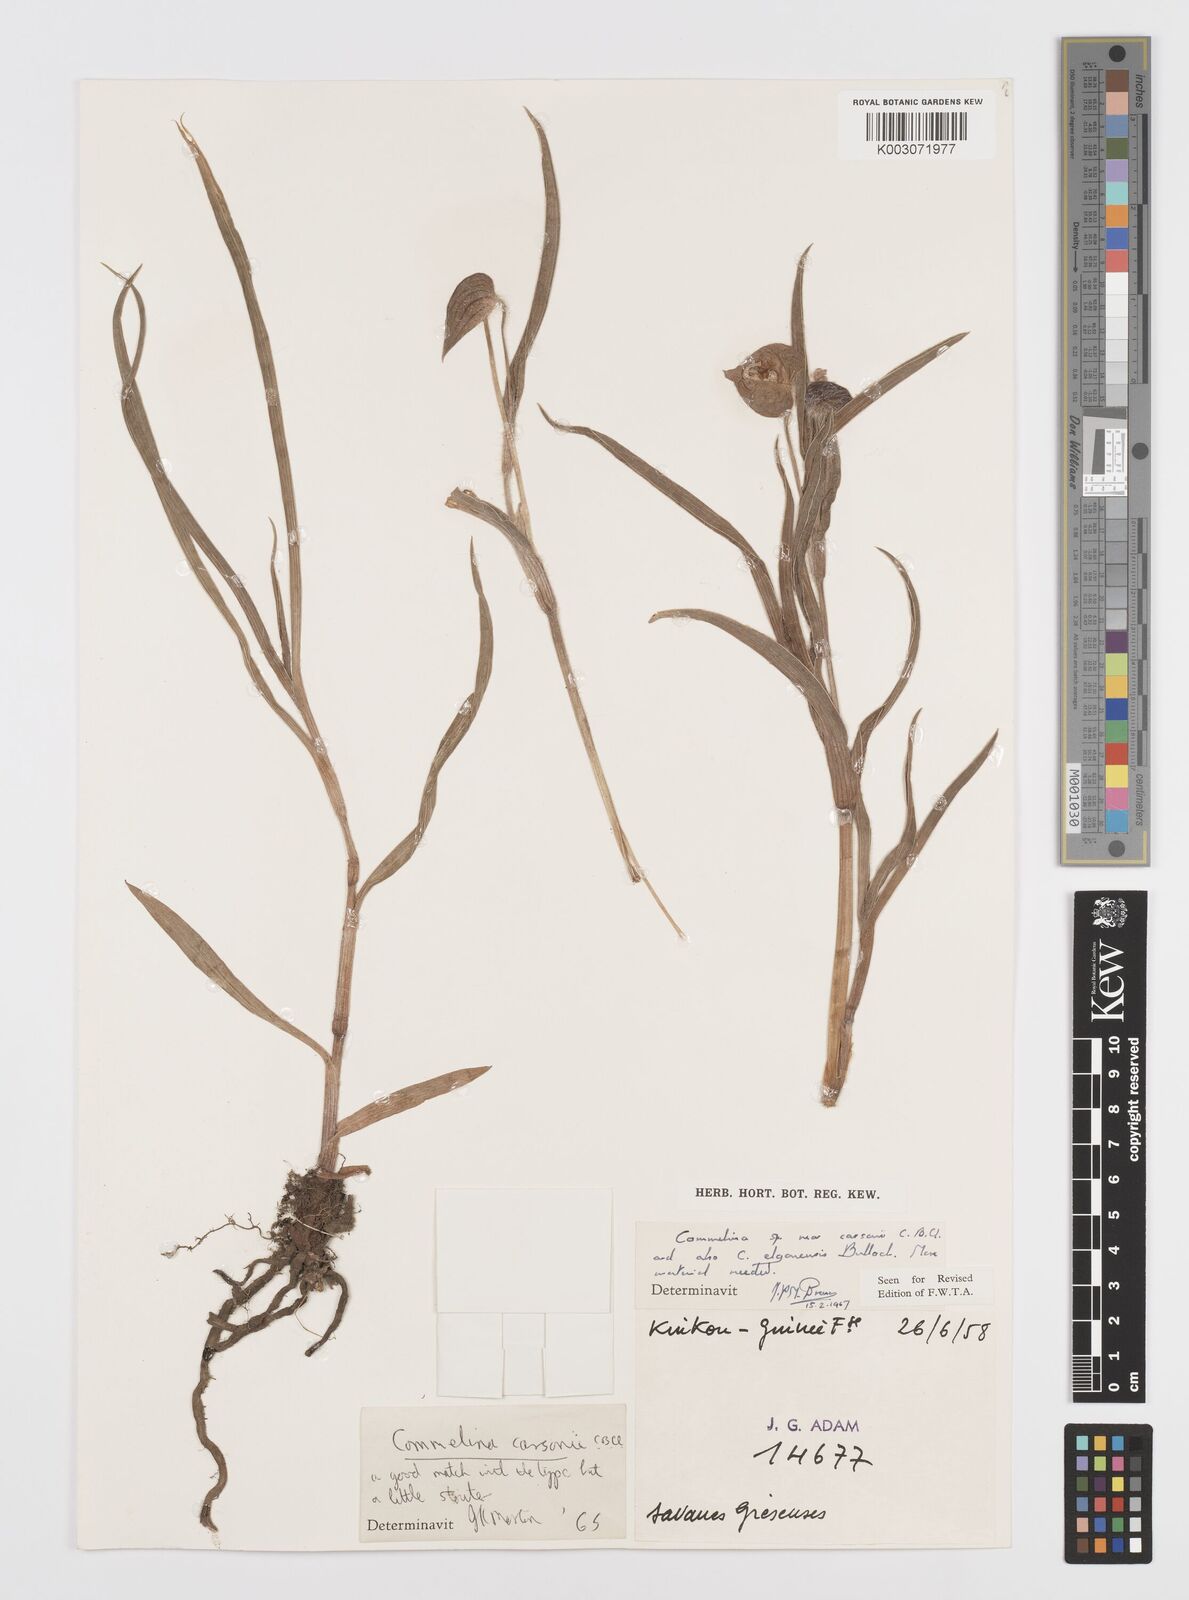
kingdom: Plantae
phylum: Tracheophyta
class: Liliopsida
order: Commelinales
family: Commelinaceae
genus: Commelina
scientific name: Commelina schweinfurthii
